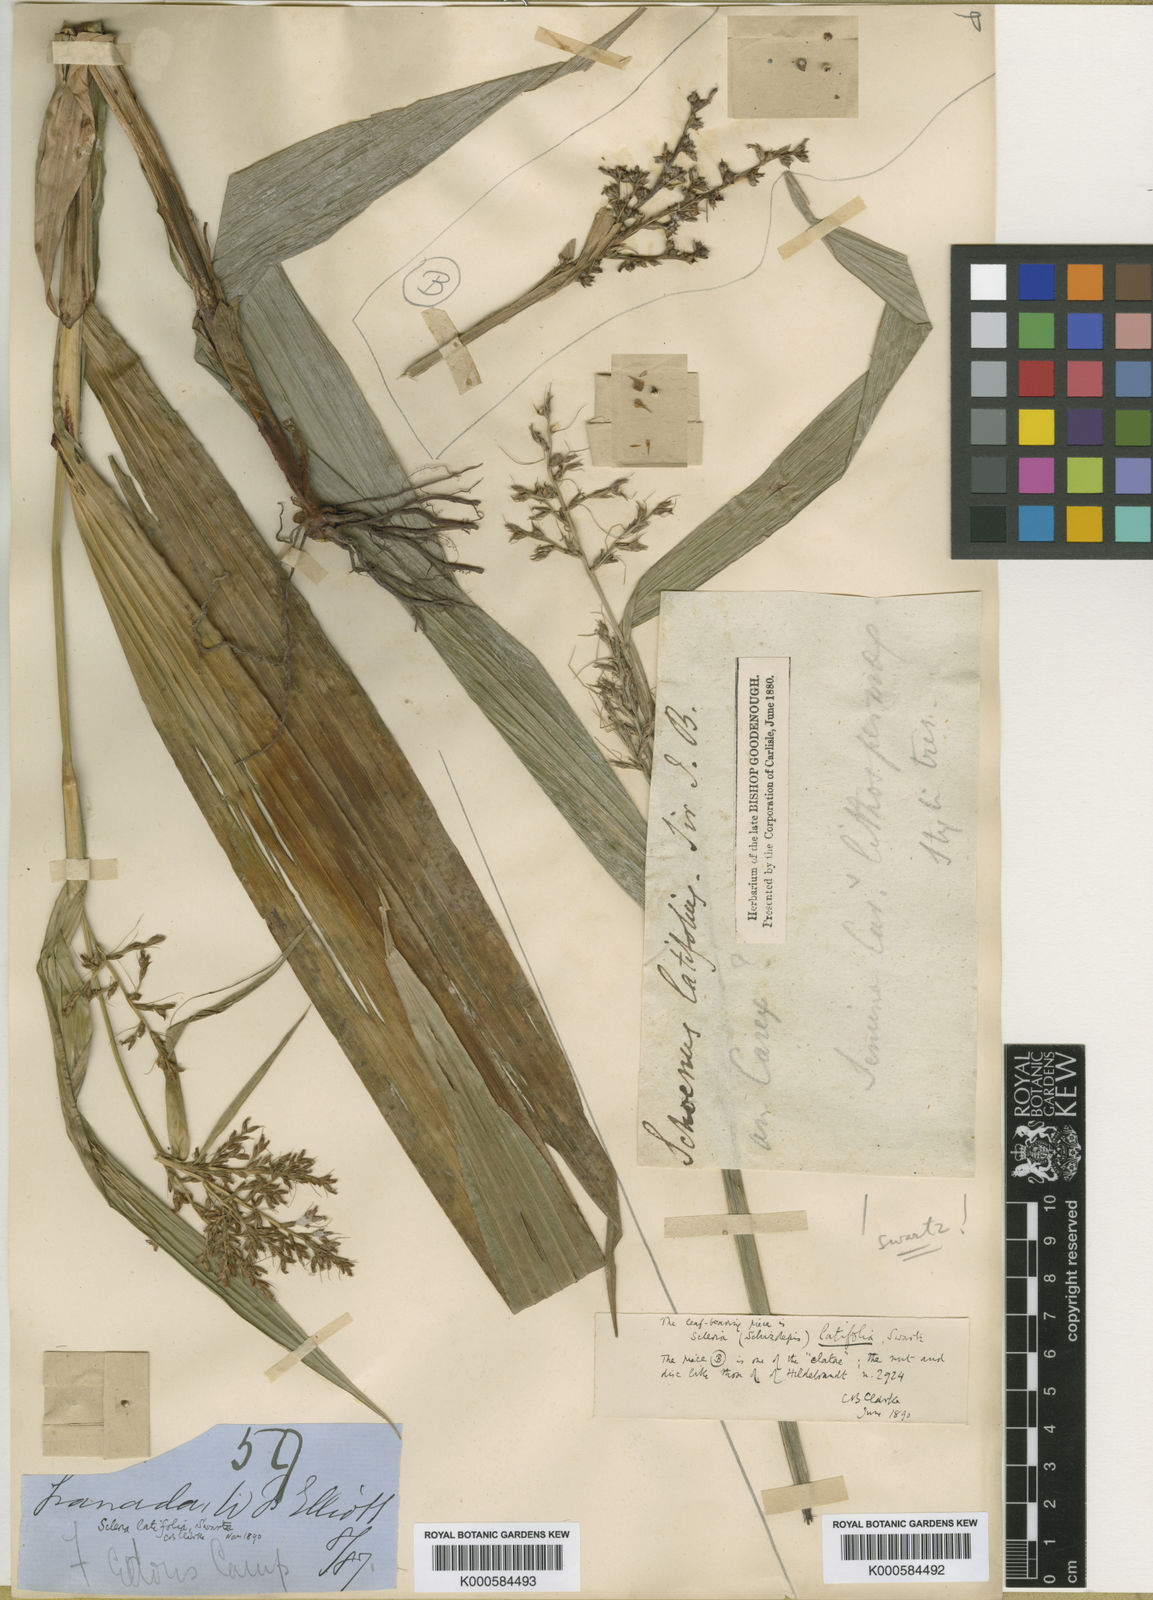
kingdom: Plantae
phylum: Tracheophyta
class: Liliopsida
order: Poales
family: Cyperaceae
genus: Scleria
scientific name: Scleria latifolia
